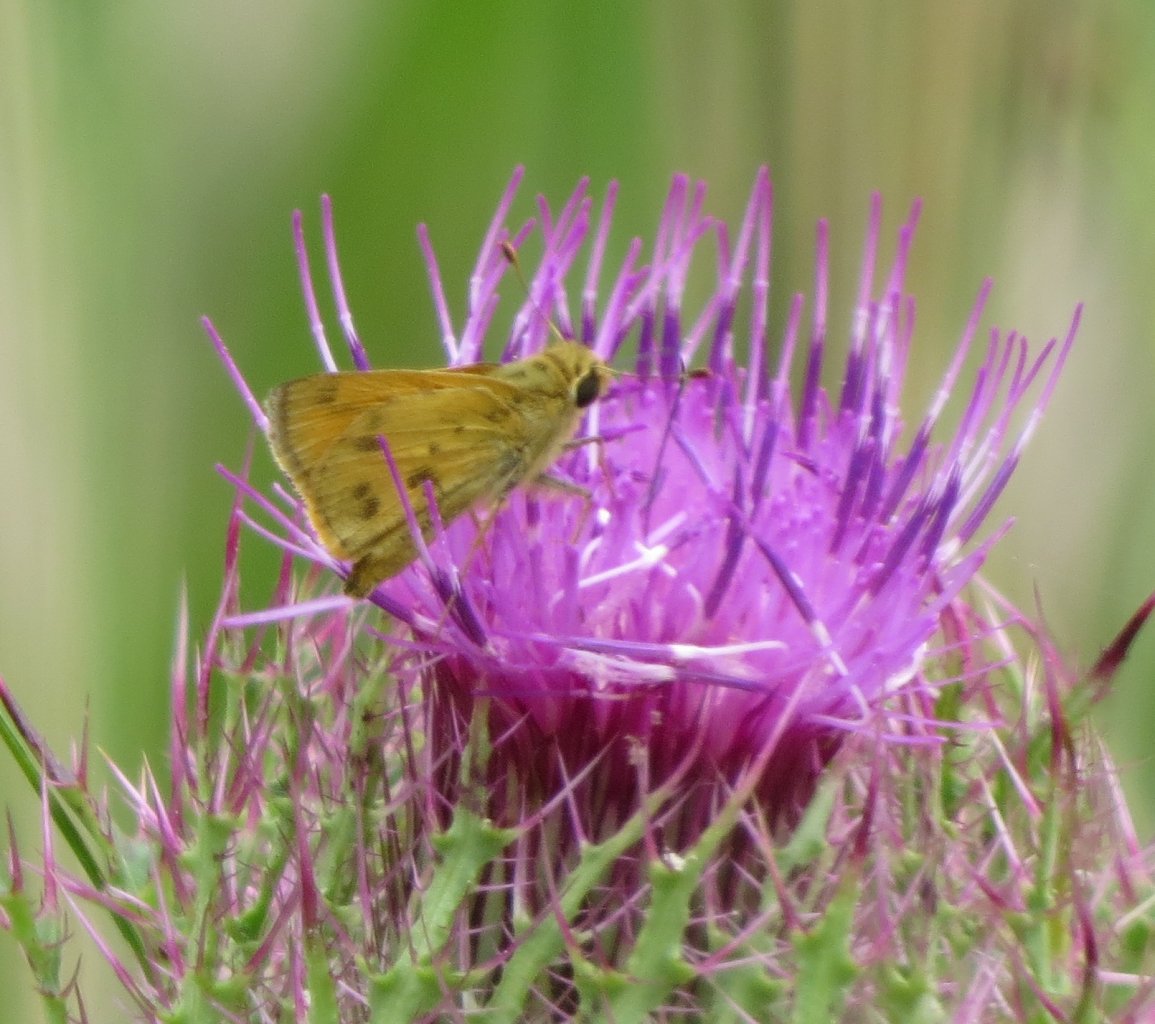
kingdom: Animalia
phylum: Arthropoda
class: Insecta
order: Lepidoptera
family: Hesperiidae
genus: Hylephila
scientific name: Hylephila phyleus
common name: Fiery Skipper
